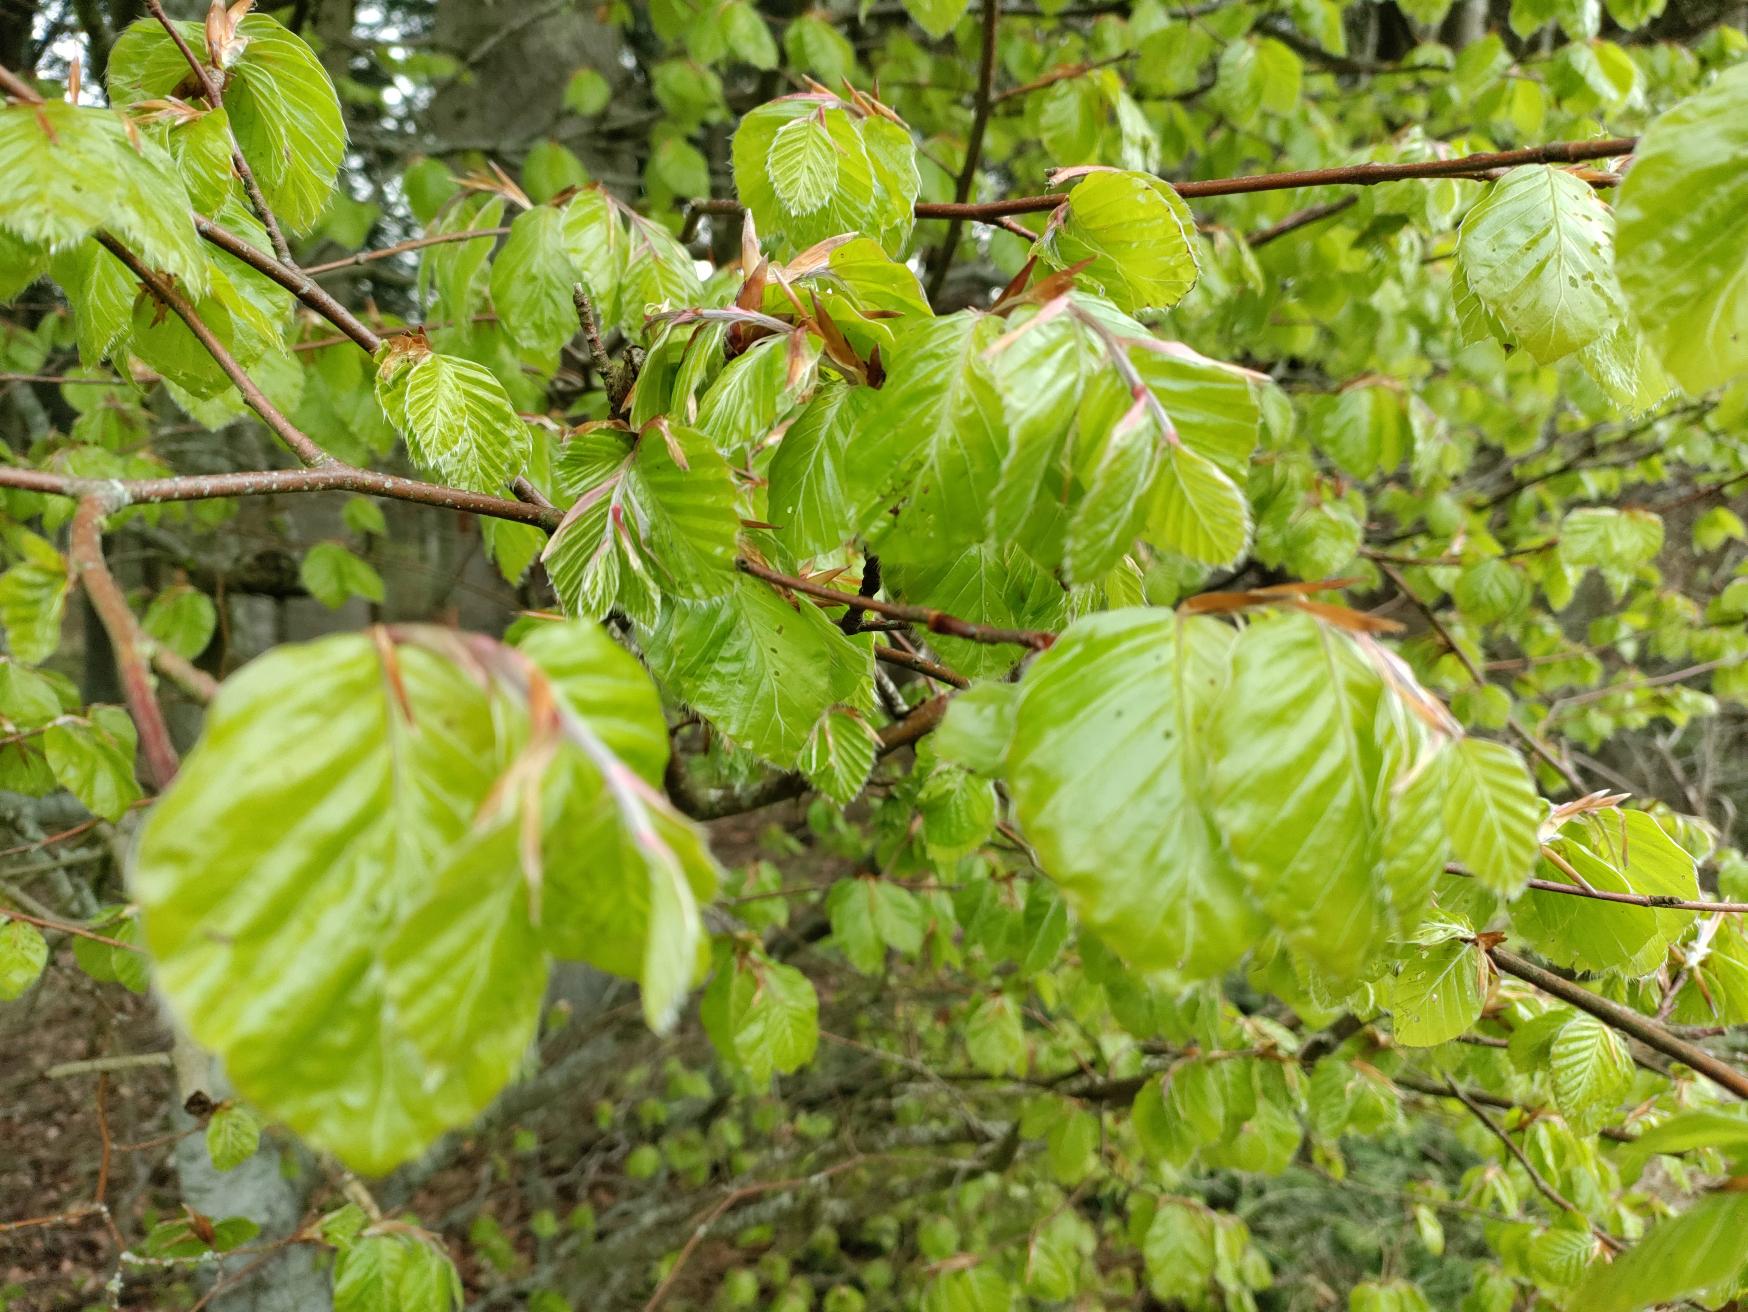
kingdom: Plantae
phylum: Tracheophyta
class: Magnoliopsida
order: Fagales
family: Fagaceae
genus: Fagus
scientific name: Fagus sylvatica
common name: Bøg
